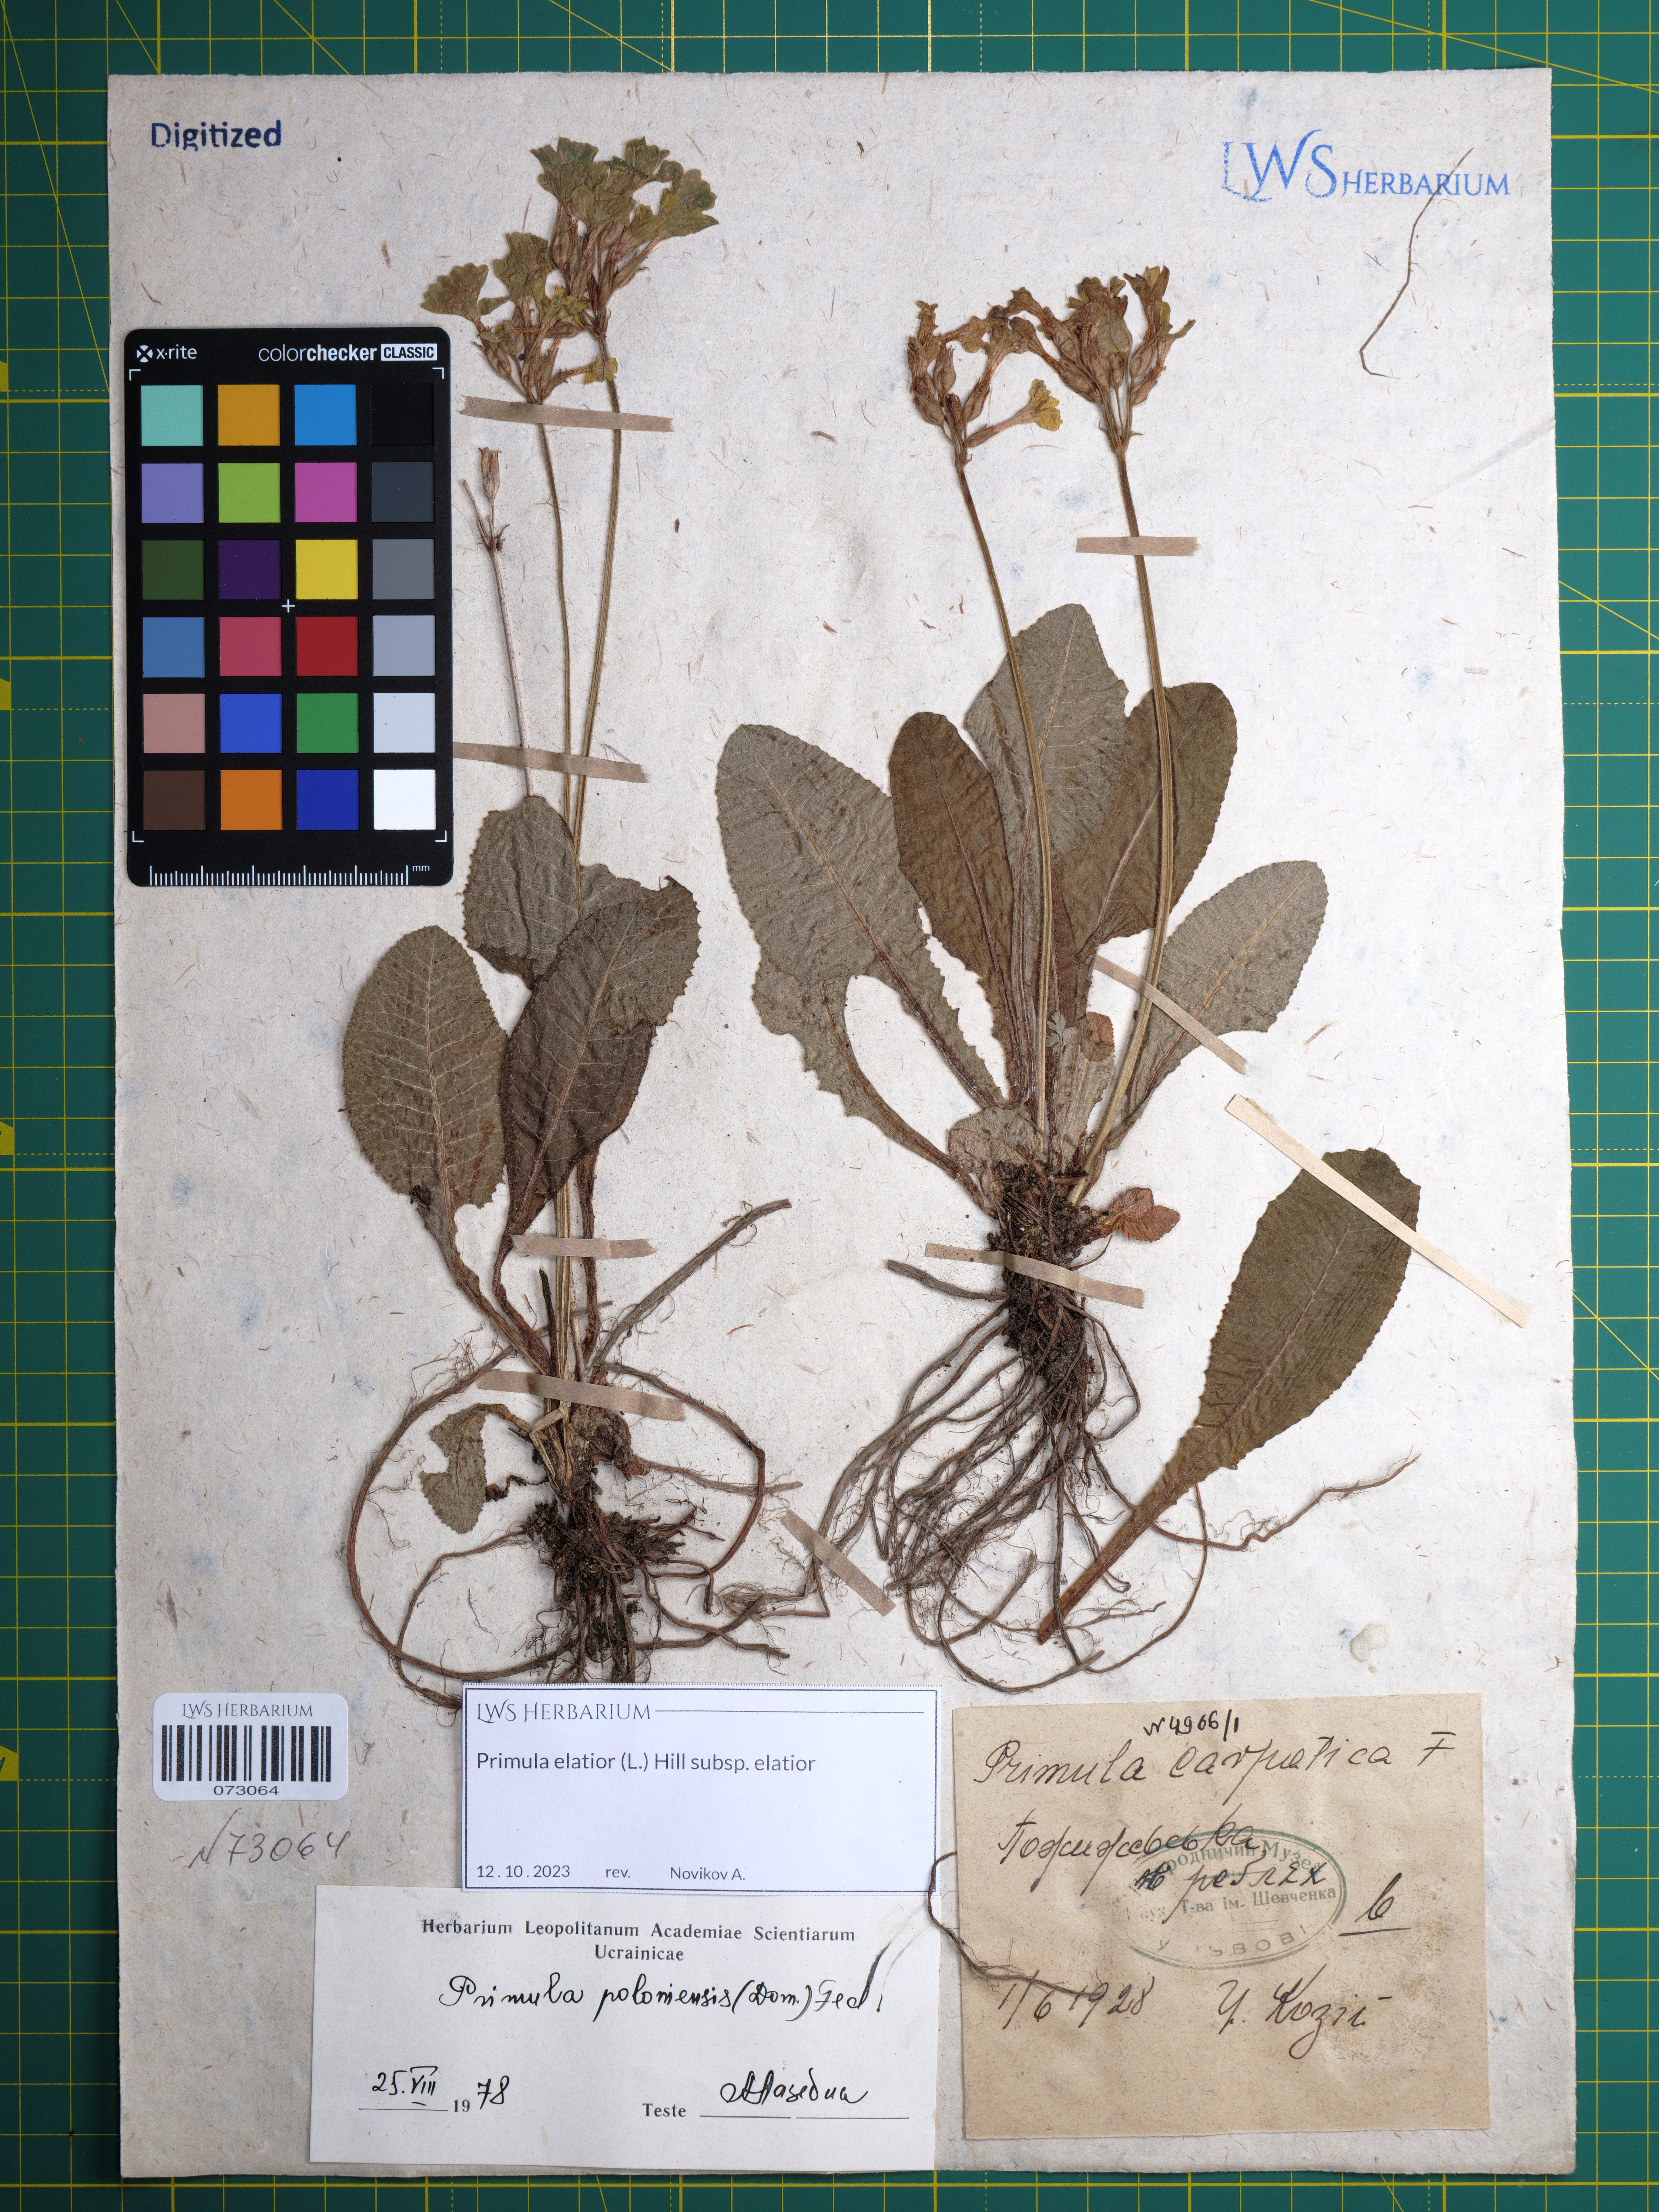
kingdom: Plantae
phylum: Tracheophyta
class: Magnoliopsida
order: Ericales
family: Primulaceae
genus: Primula
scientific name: Primula elatior
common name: Oxlip
